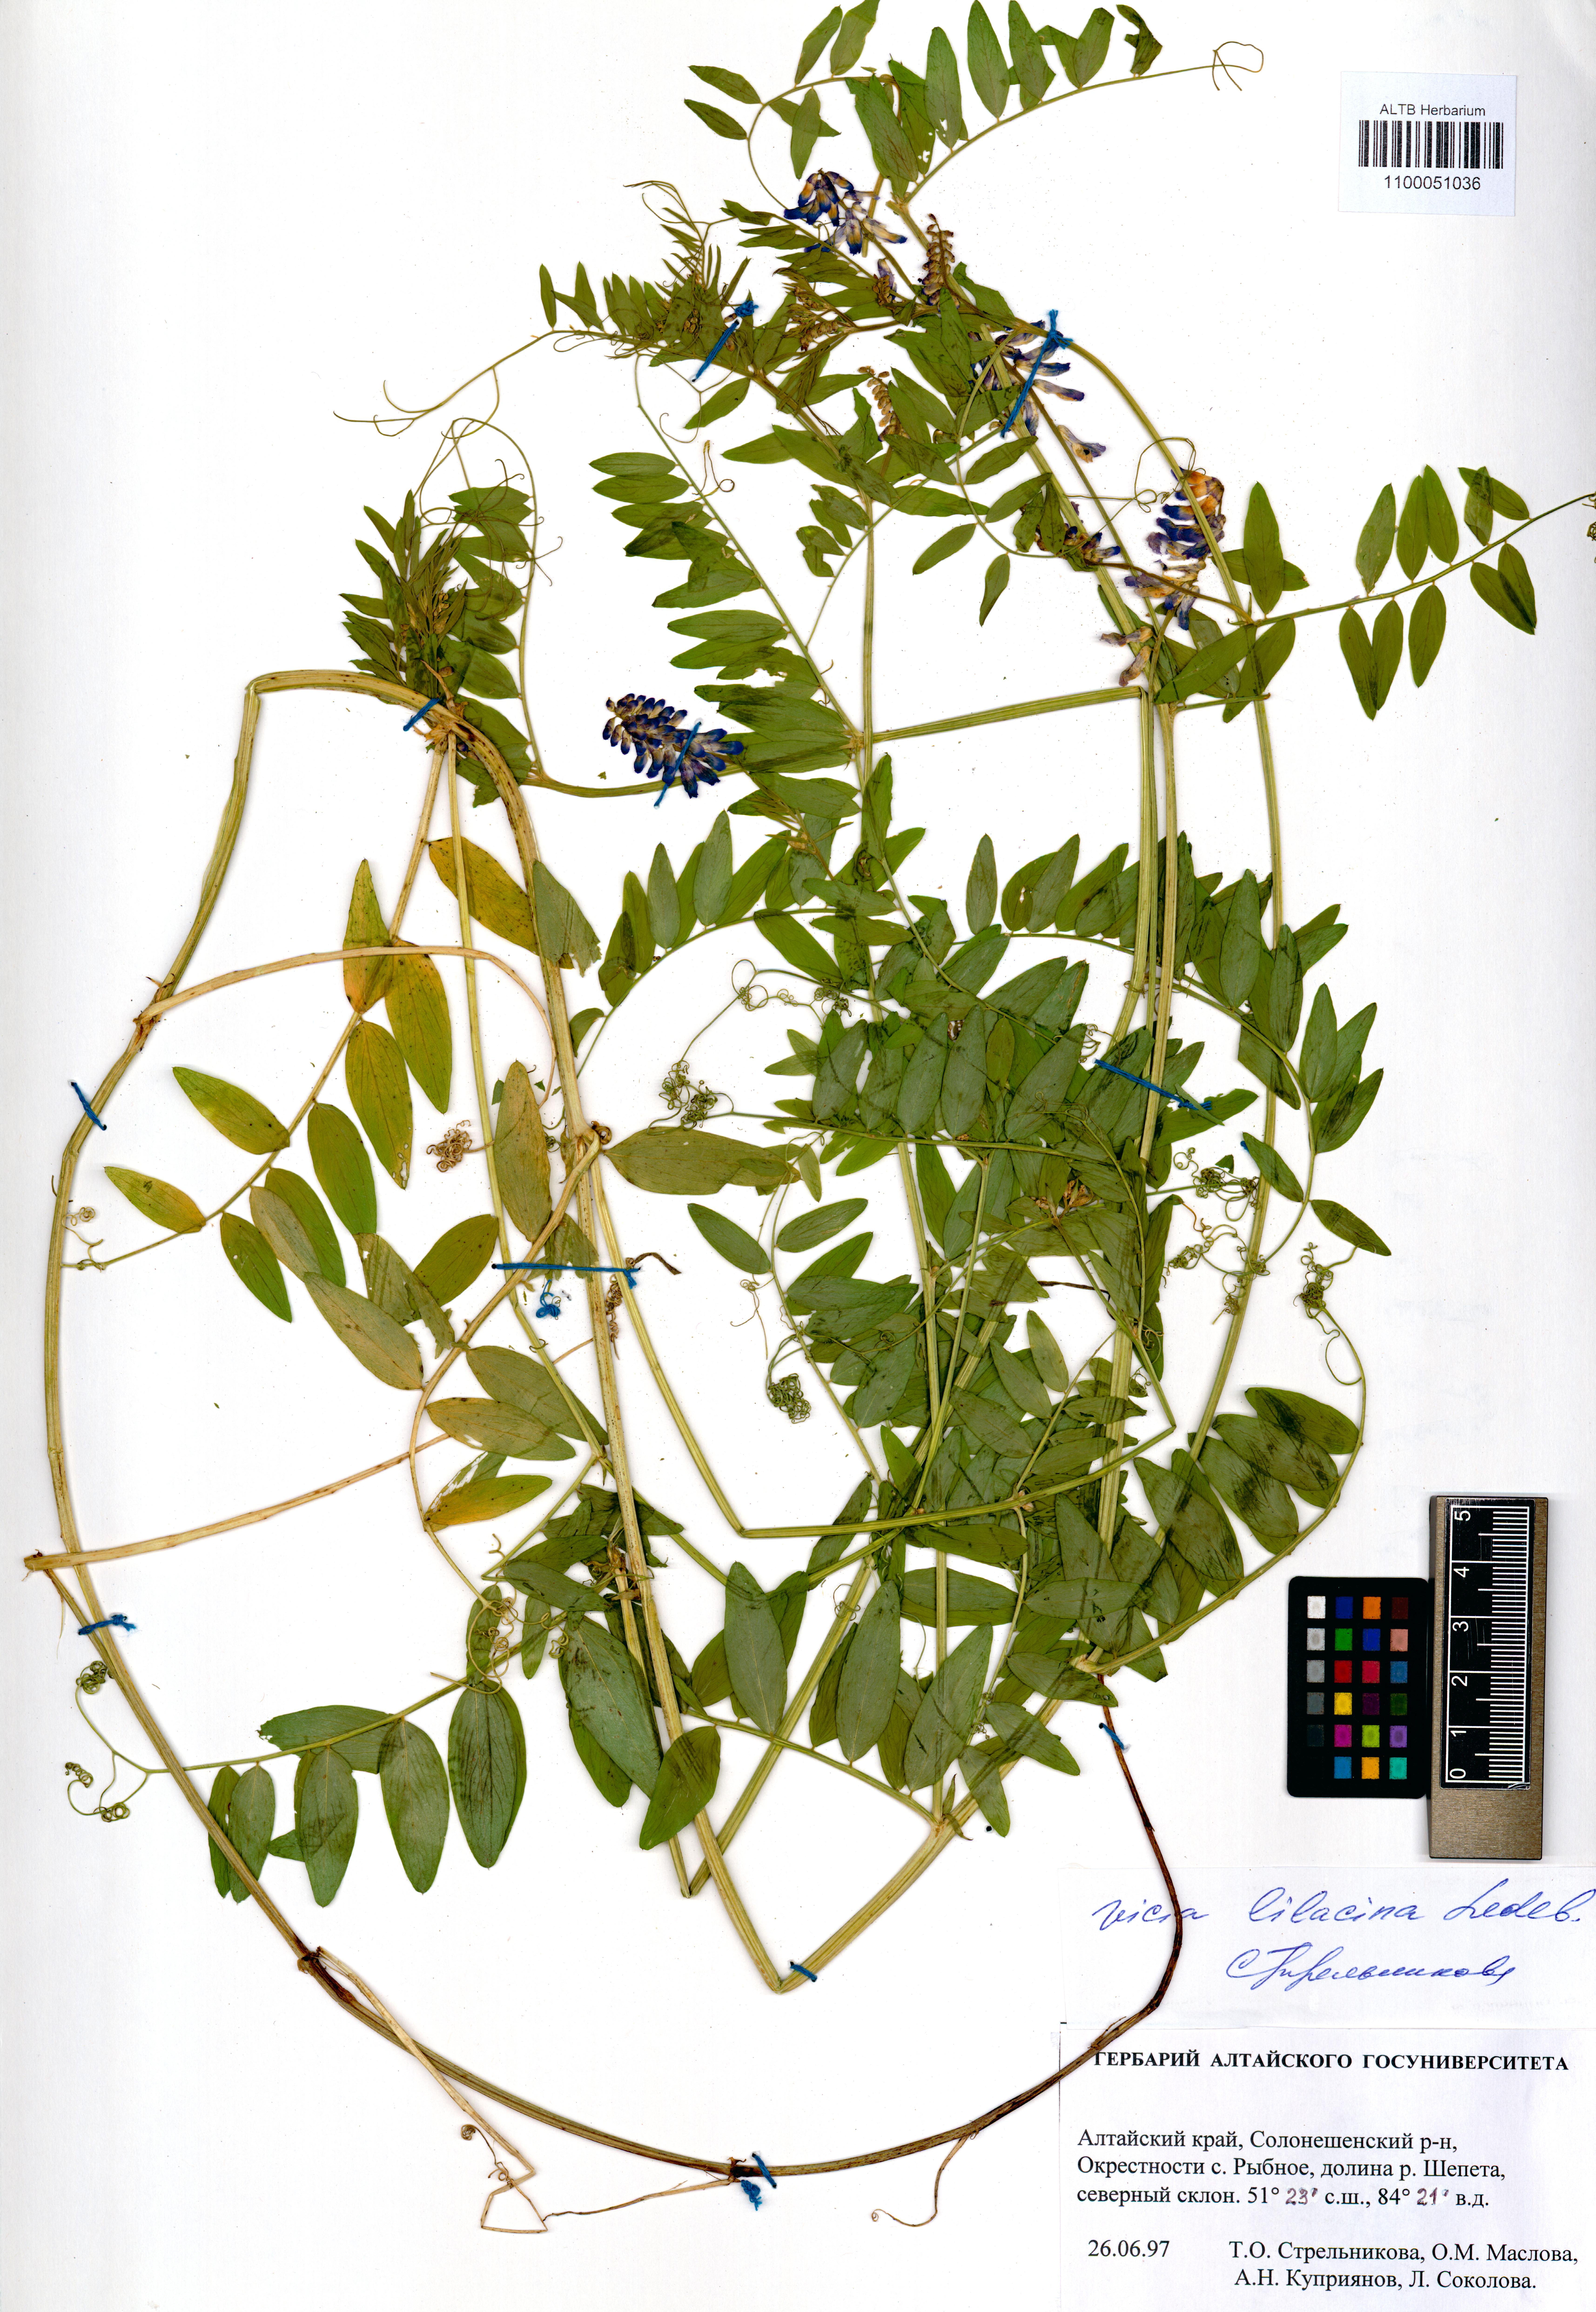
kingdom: Plantae
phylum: Tracheophyta
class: Magnoliopsida
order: Fabales
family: Fabaceae
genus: Vicia
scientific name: Vicia lilacina
